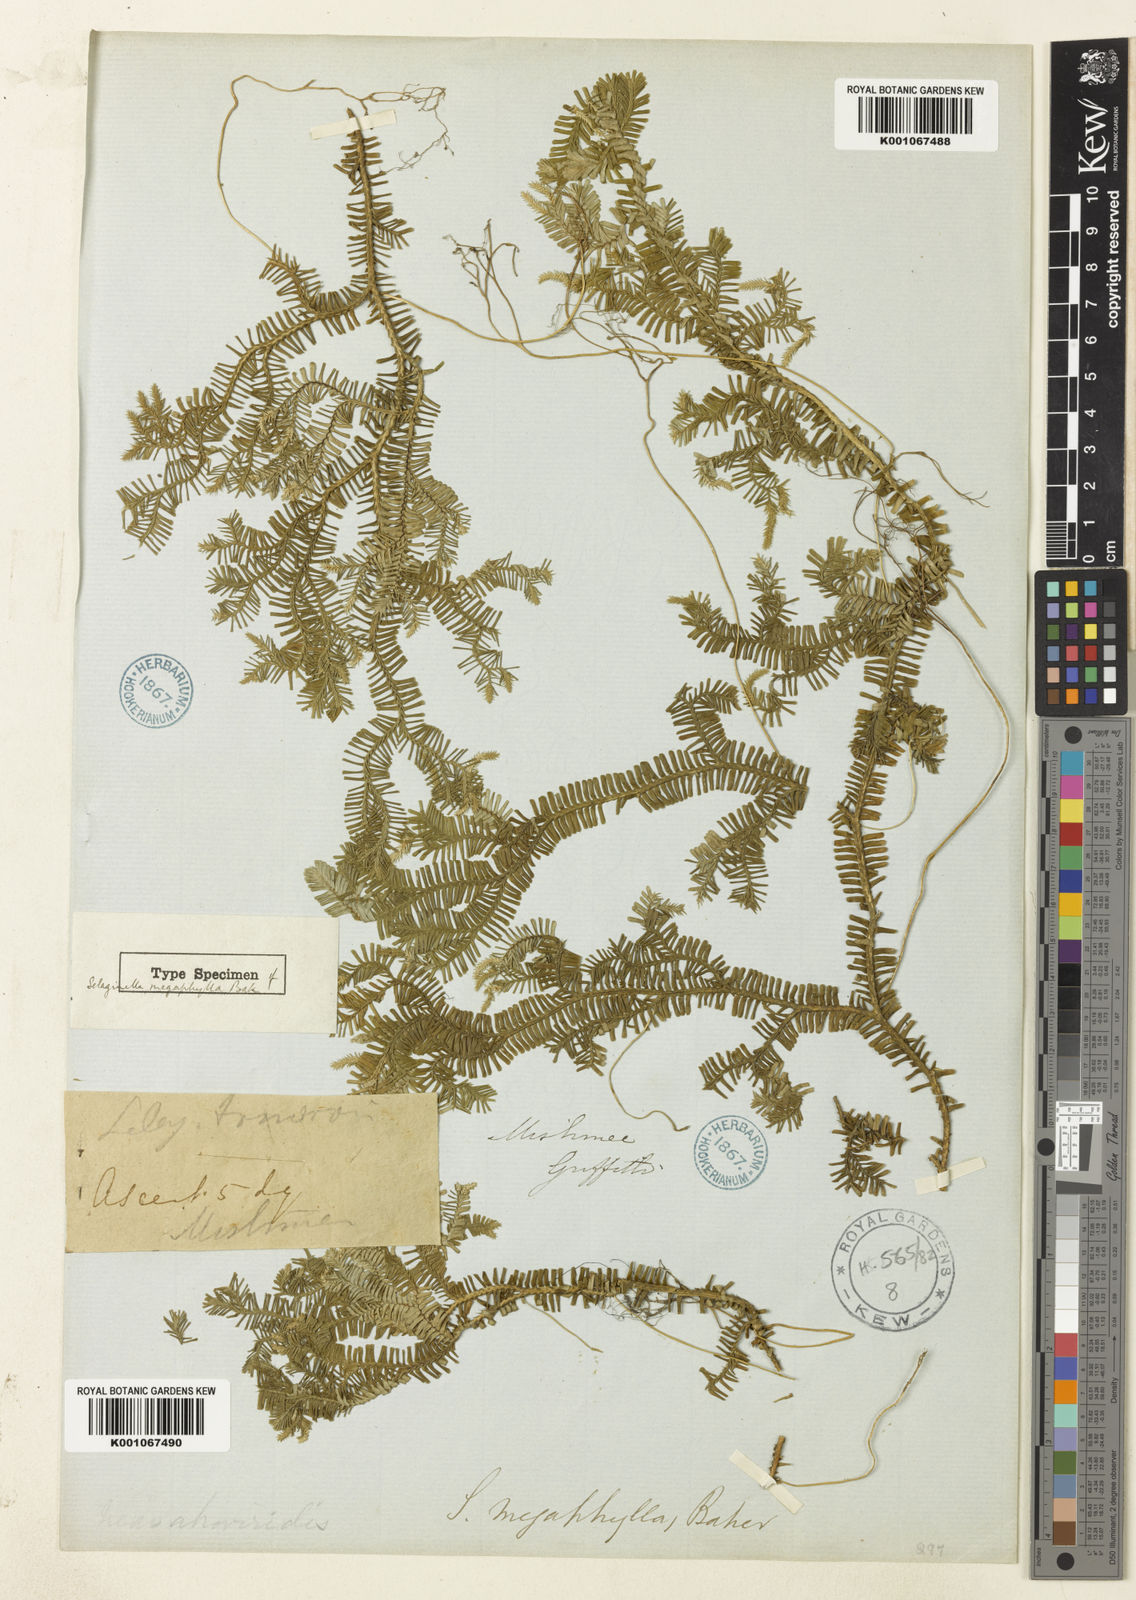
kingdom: Plantae
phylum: Tracheophyta
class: Lycopodiopsida
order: Selaginellales
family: Selaginellaceae
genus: Selaginella
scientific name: Selaginella megaphylla
